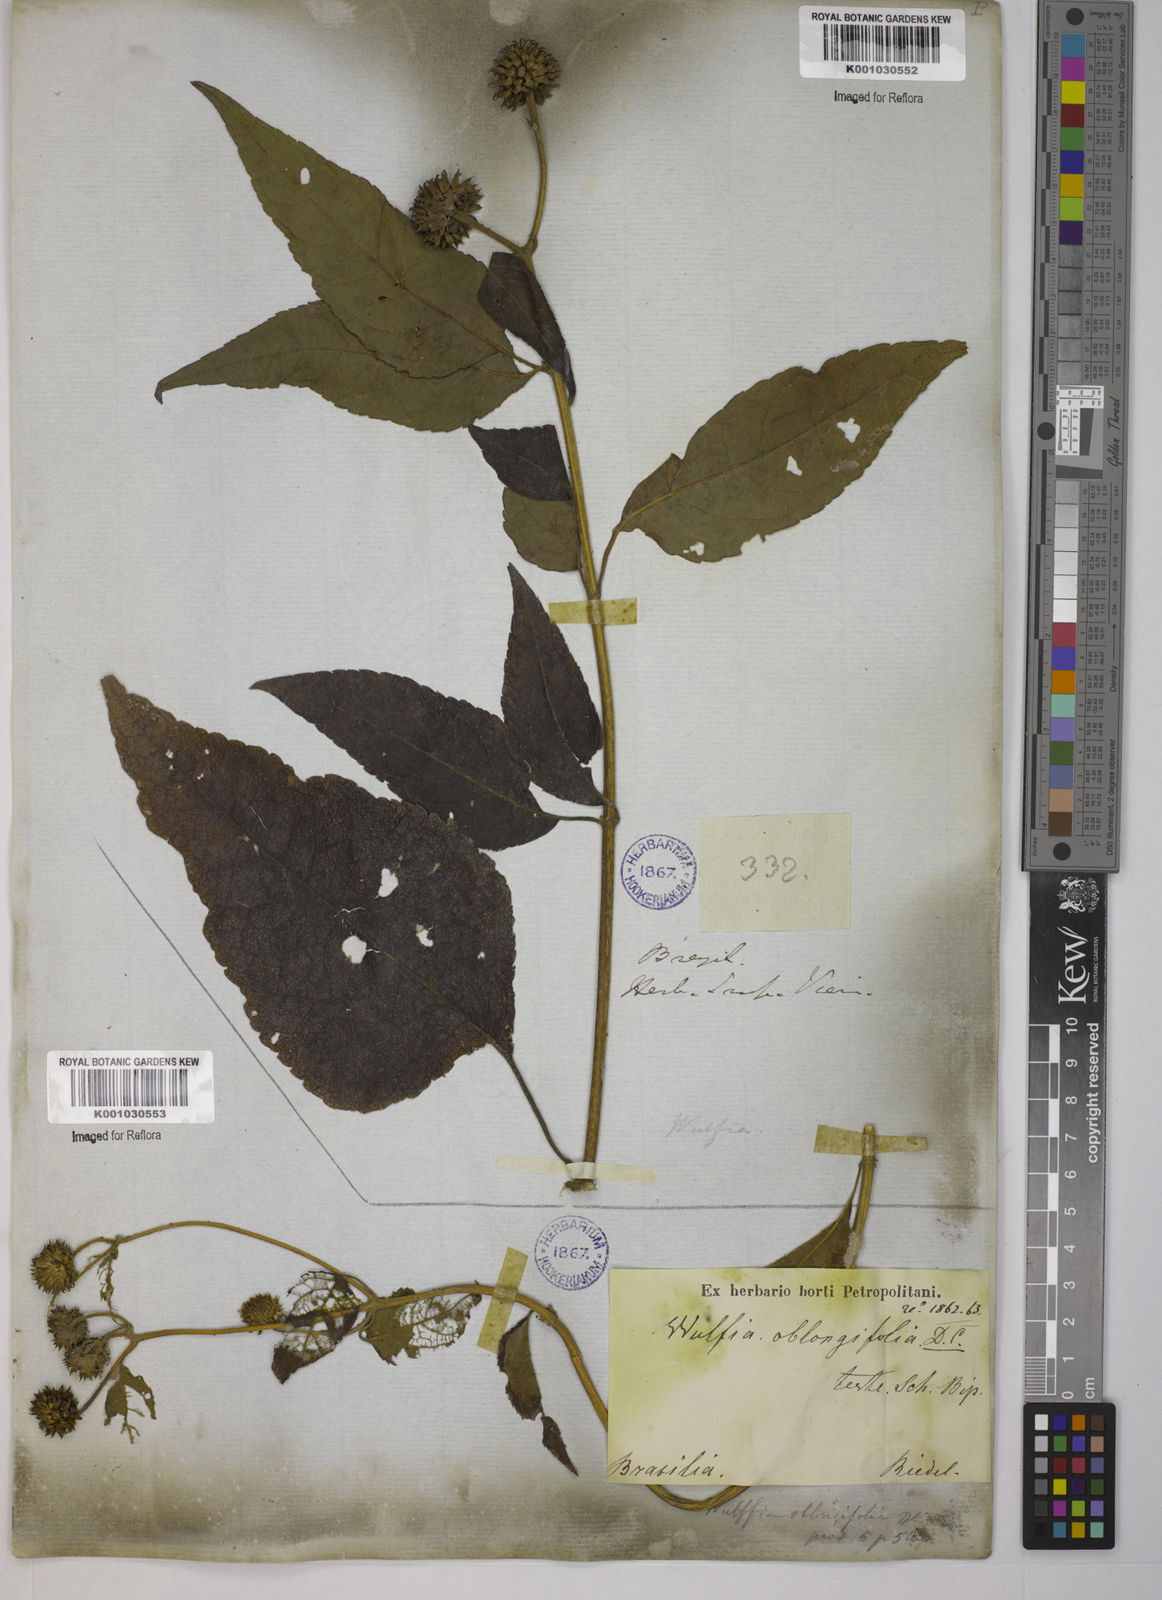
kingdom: Plantae
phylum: Tracheophyta
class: Magnoliopsida
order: Asterales
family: Asteraceae
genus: Tilesia
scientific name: Tilesia baccata
